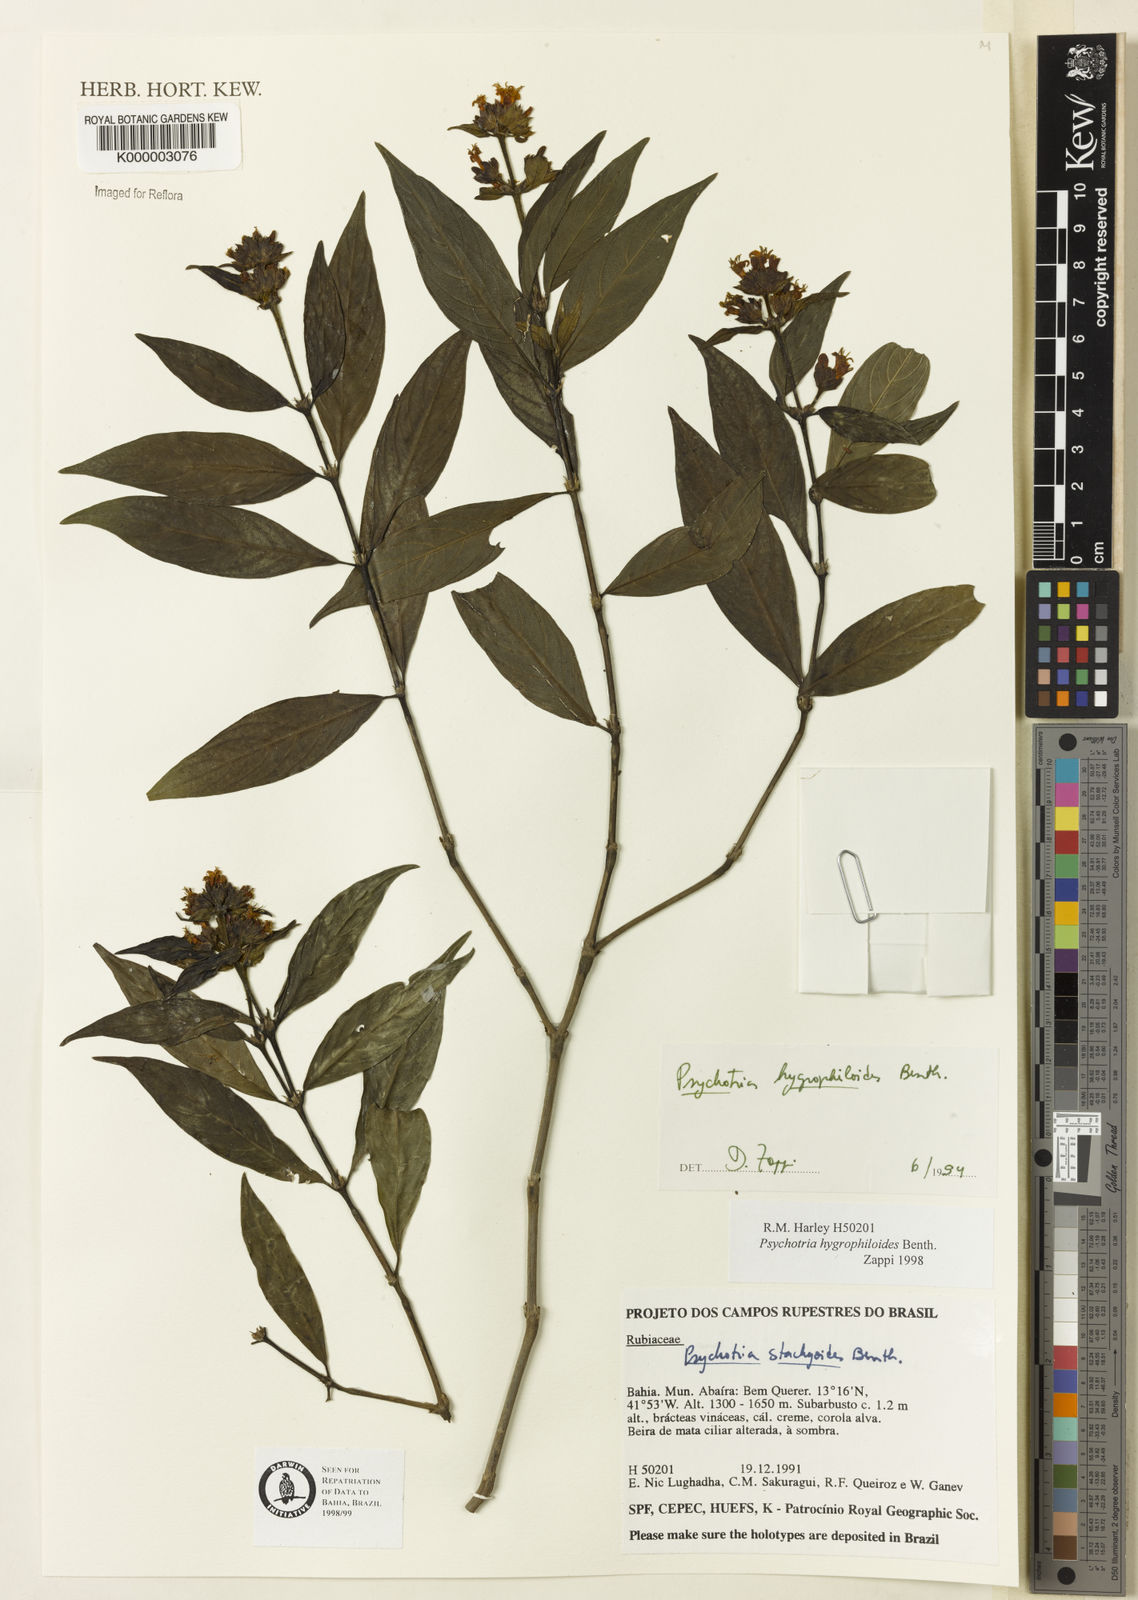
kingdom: Plantae
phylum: Tracheophyta
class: Magnoliopsida
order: Gentianales
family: Rubiaceae
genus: Psychotria
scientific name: Psychotria stachyoides
